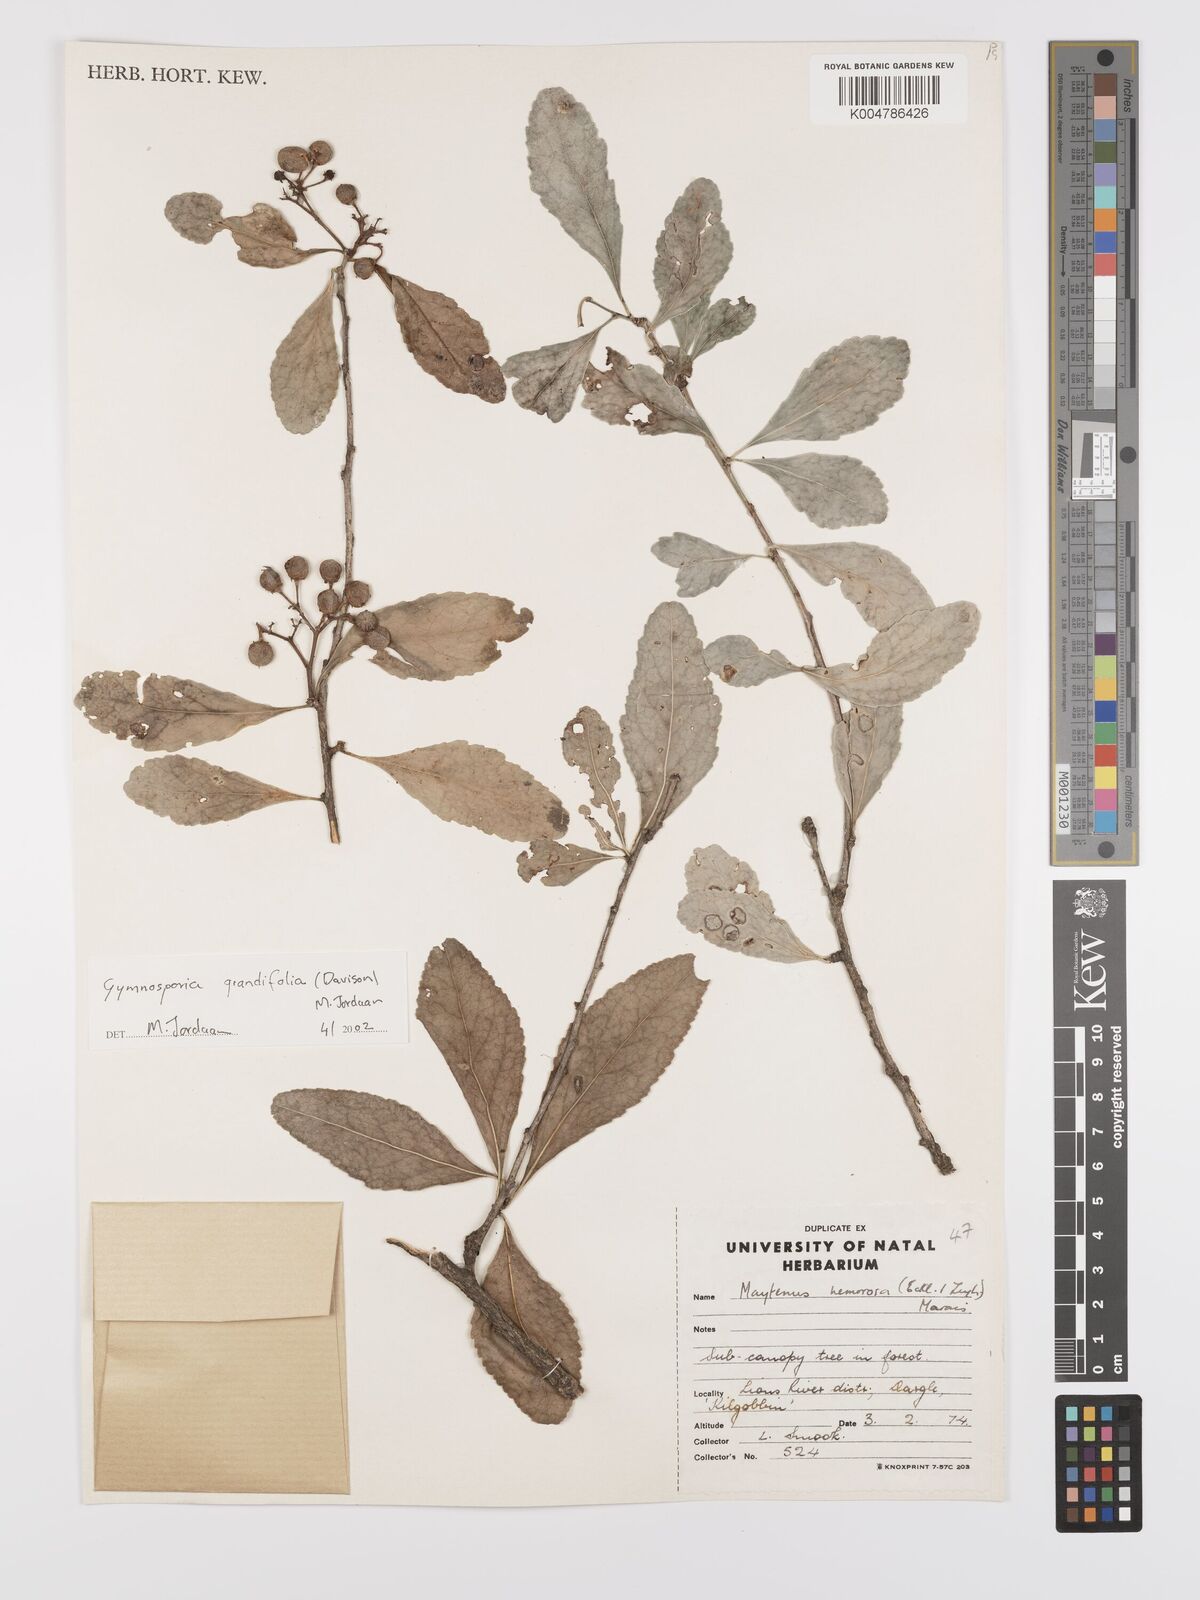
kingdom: Plantae
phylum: Tracheophyta
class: Magnoliopsida
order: Celastrales
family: Celastraceae
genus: Gymnosporia
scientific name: Gymnosporia grandifolia
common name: Large-fruited forest spike-thorn
